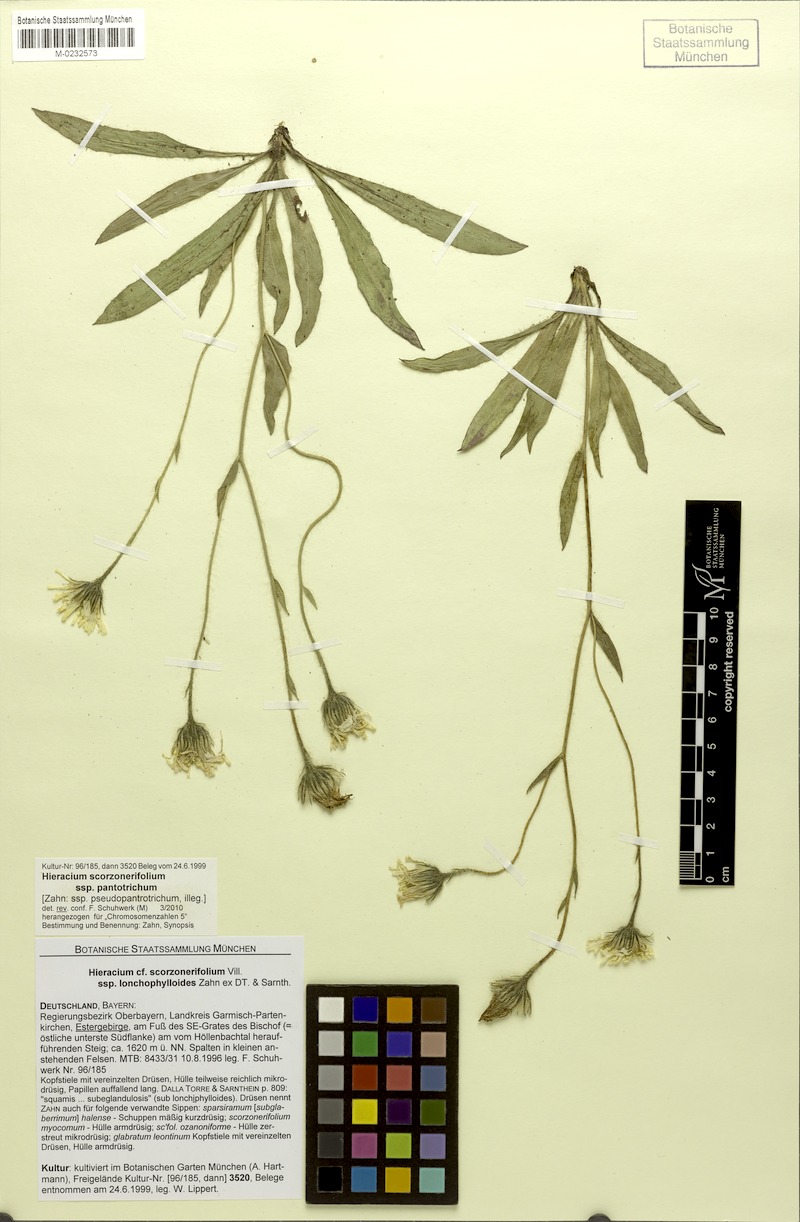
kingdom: Plantae
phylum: Tracheophyta
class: Magnoliopsida
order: Asterales
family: Asteraceae
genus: Hieracium
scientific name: Hieracium scorzonerifolium
